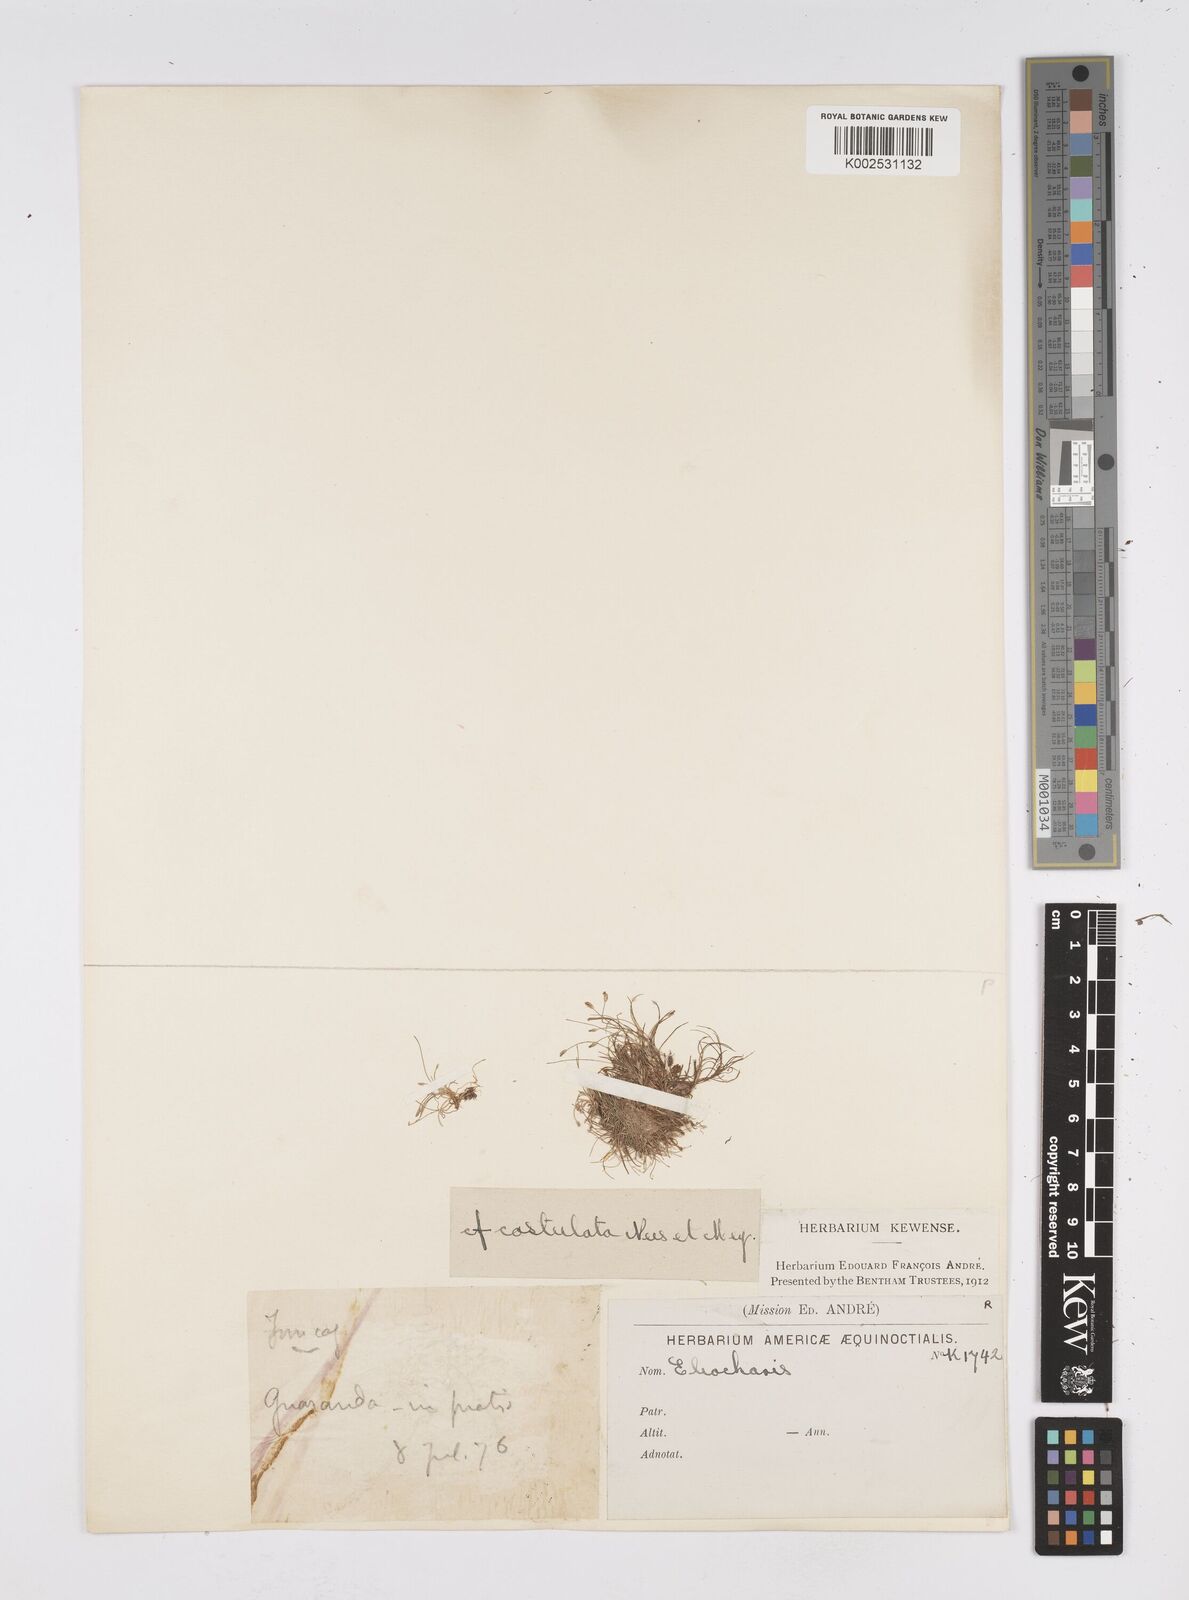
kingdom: Plantae
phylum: Tracheophyta
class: Liliopsida
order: Poales
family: Cyperaceae
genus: Eleocharis
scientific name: Eleocharis exigua
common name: Spikesedge
